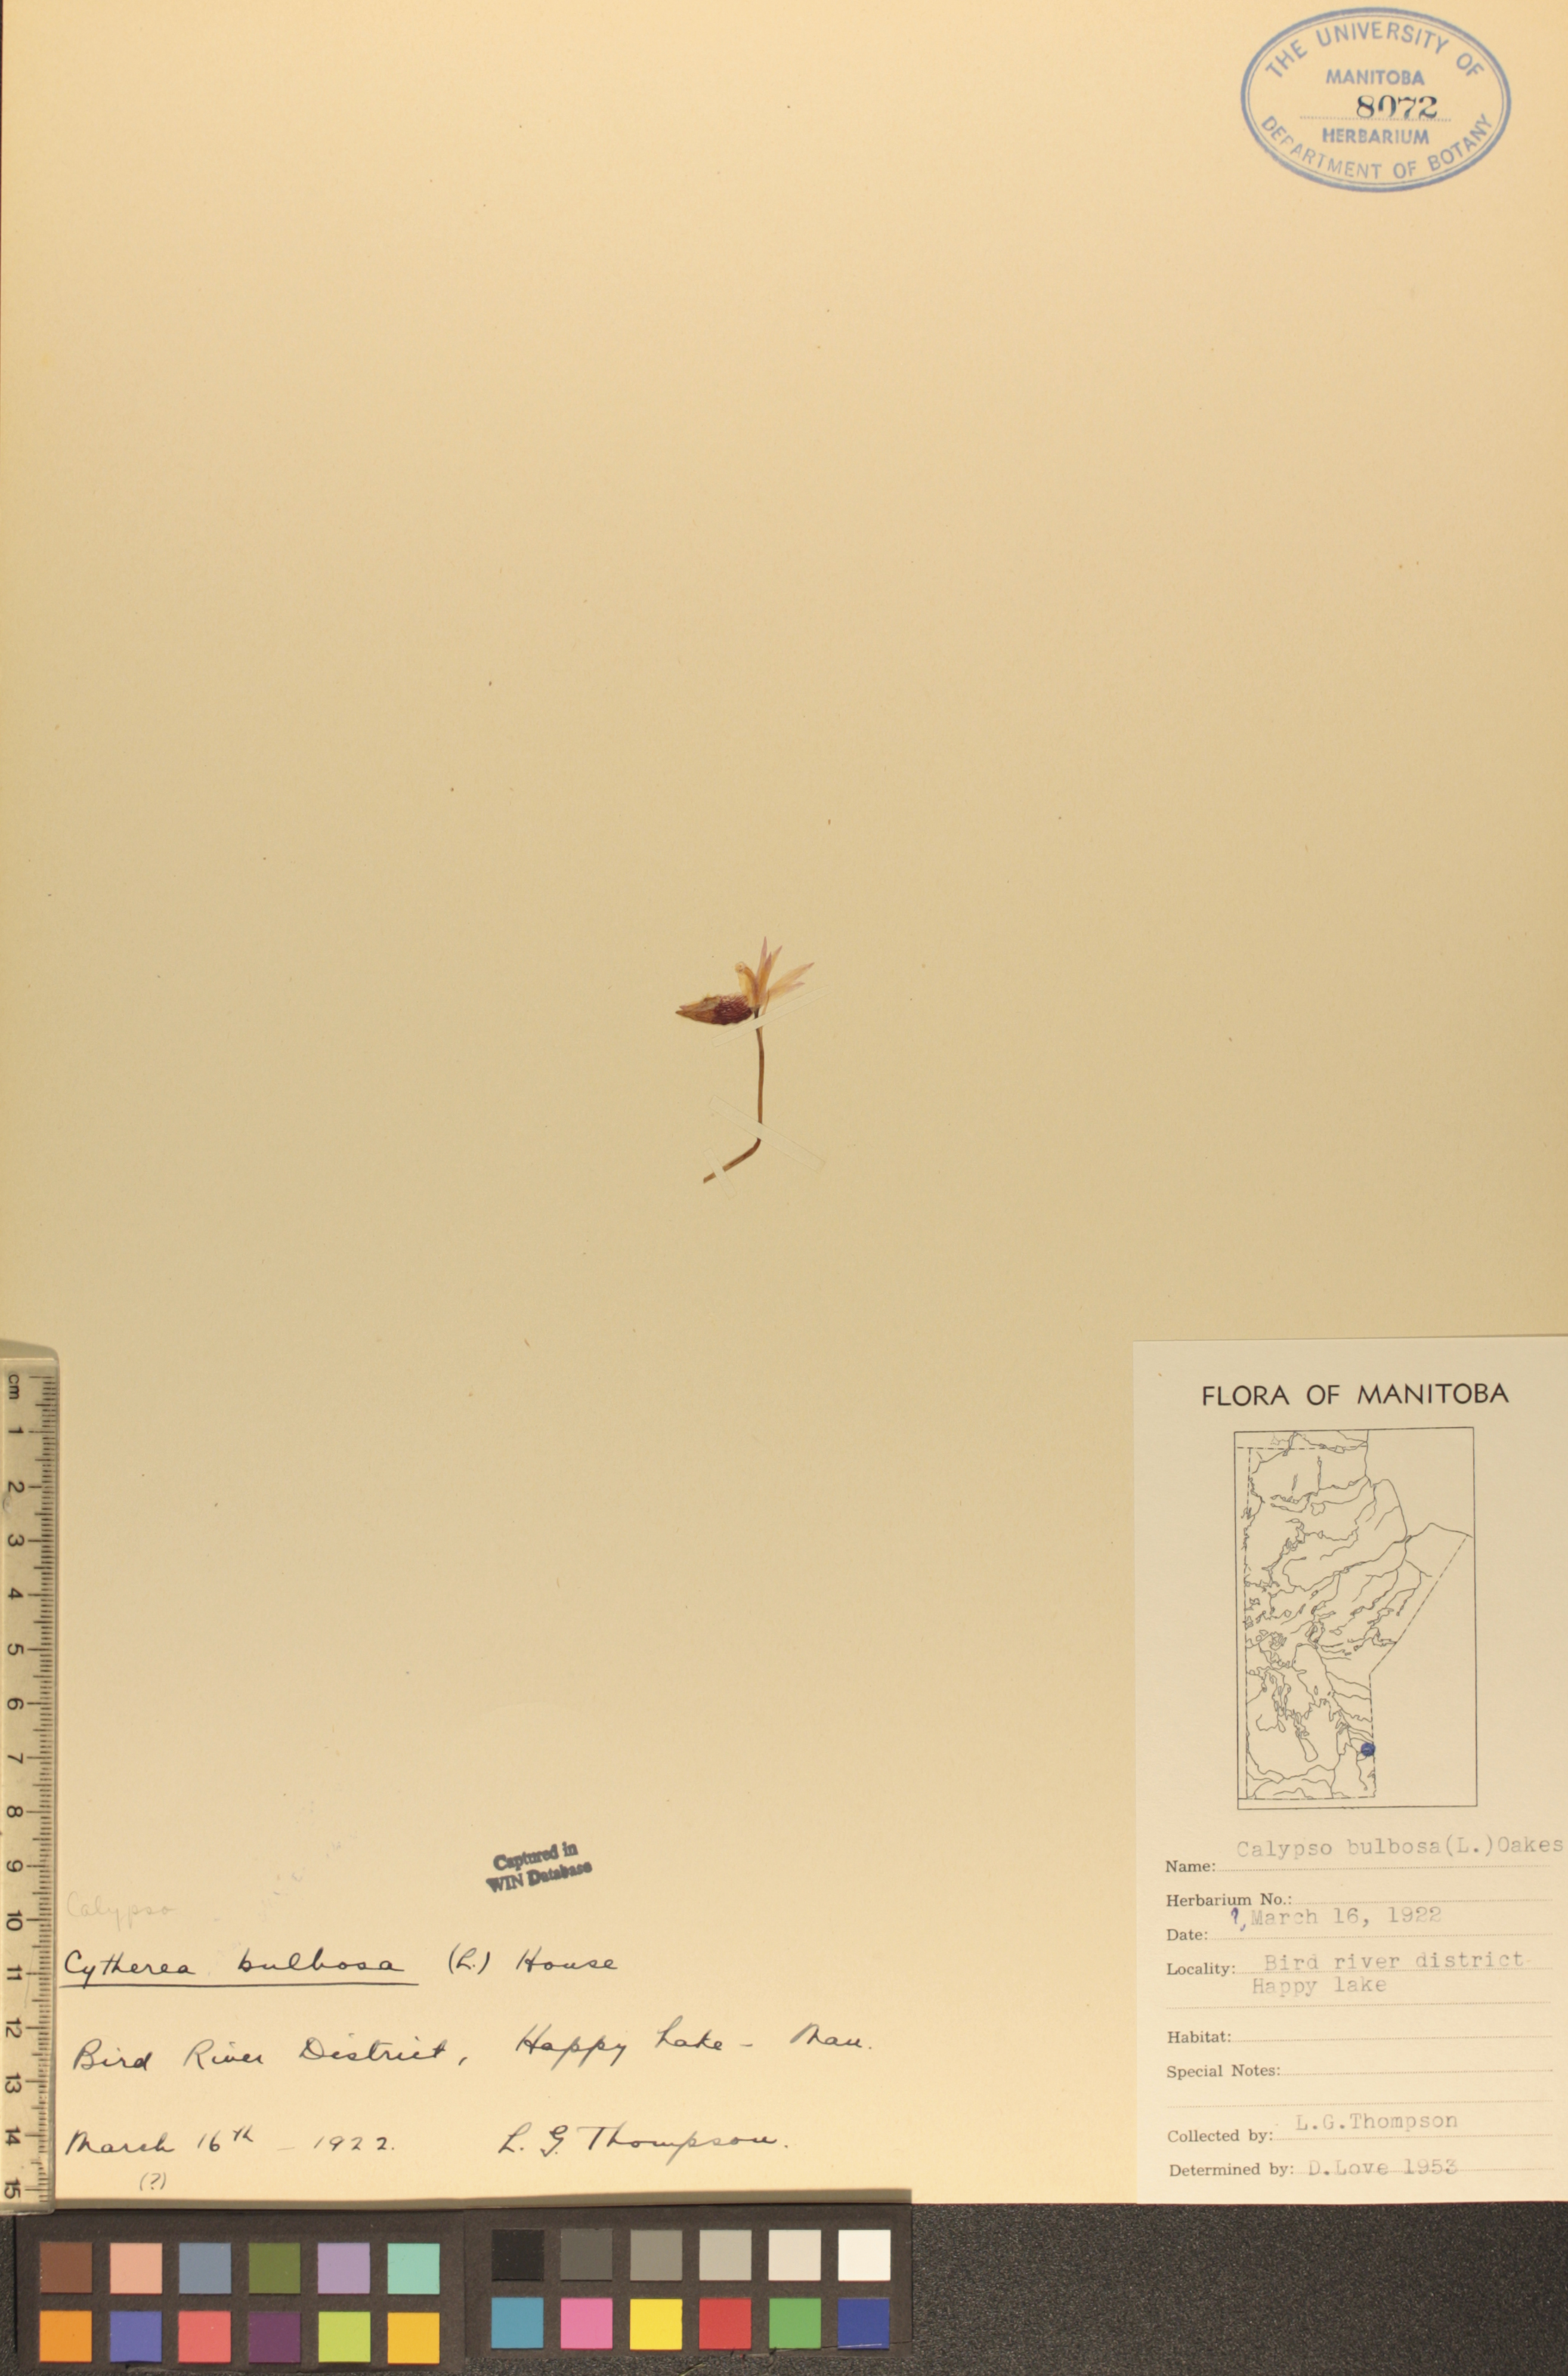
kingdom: Plantae
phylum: Tracheophyta
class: Liliopsida
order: Asparagales
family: Orchidaceae
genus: Calypso
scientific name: Calypso bulbosa
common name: Calypso
